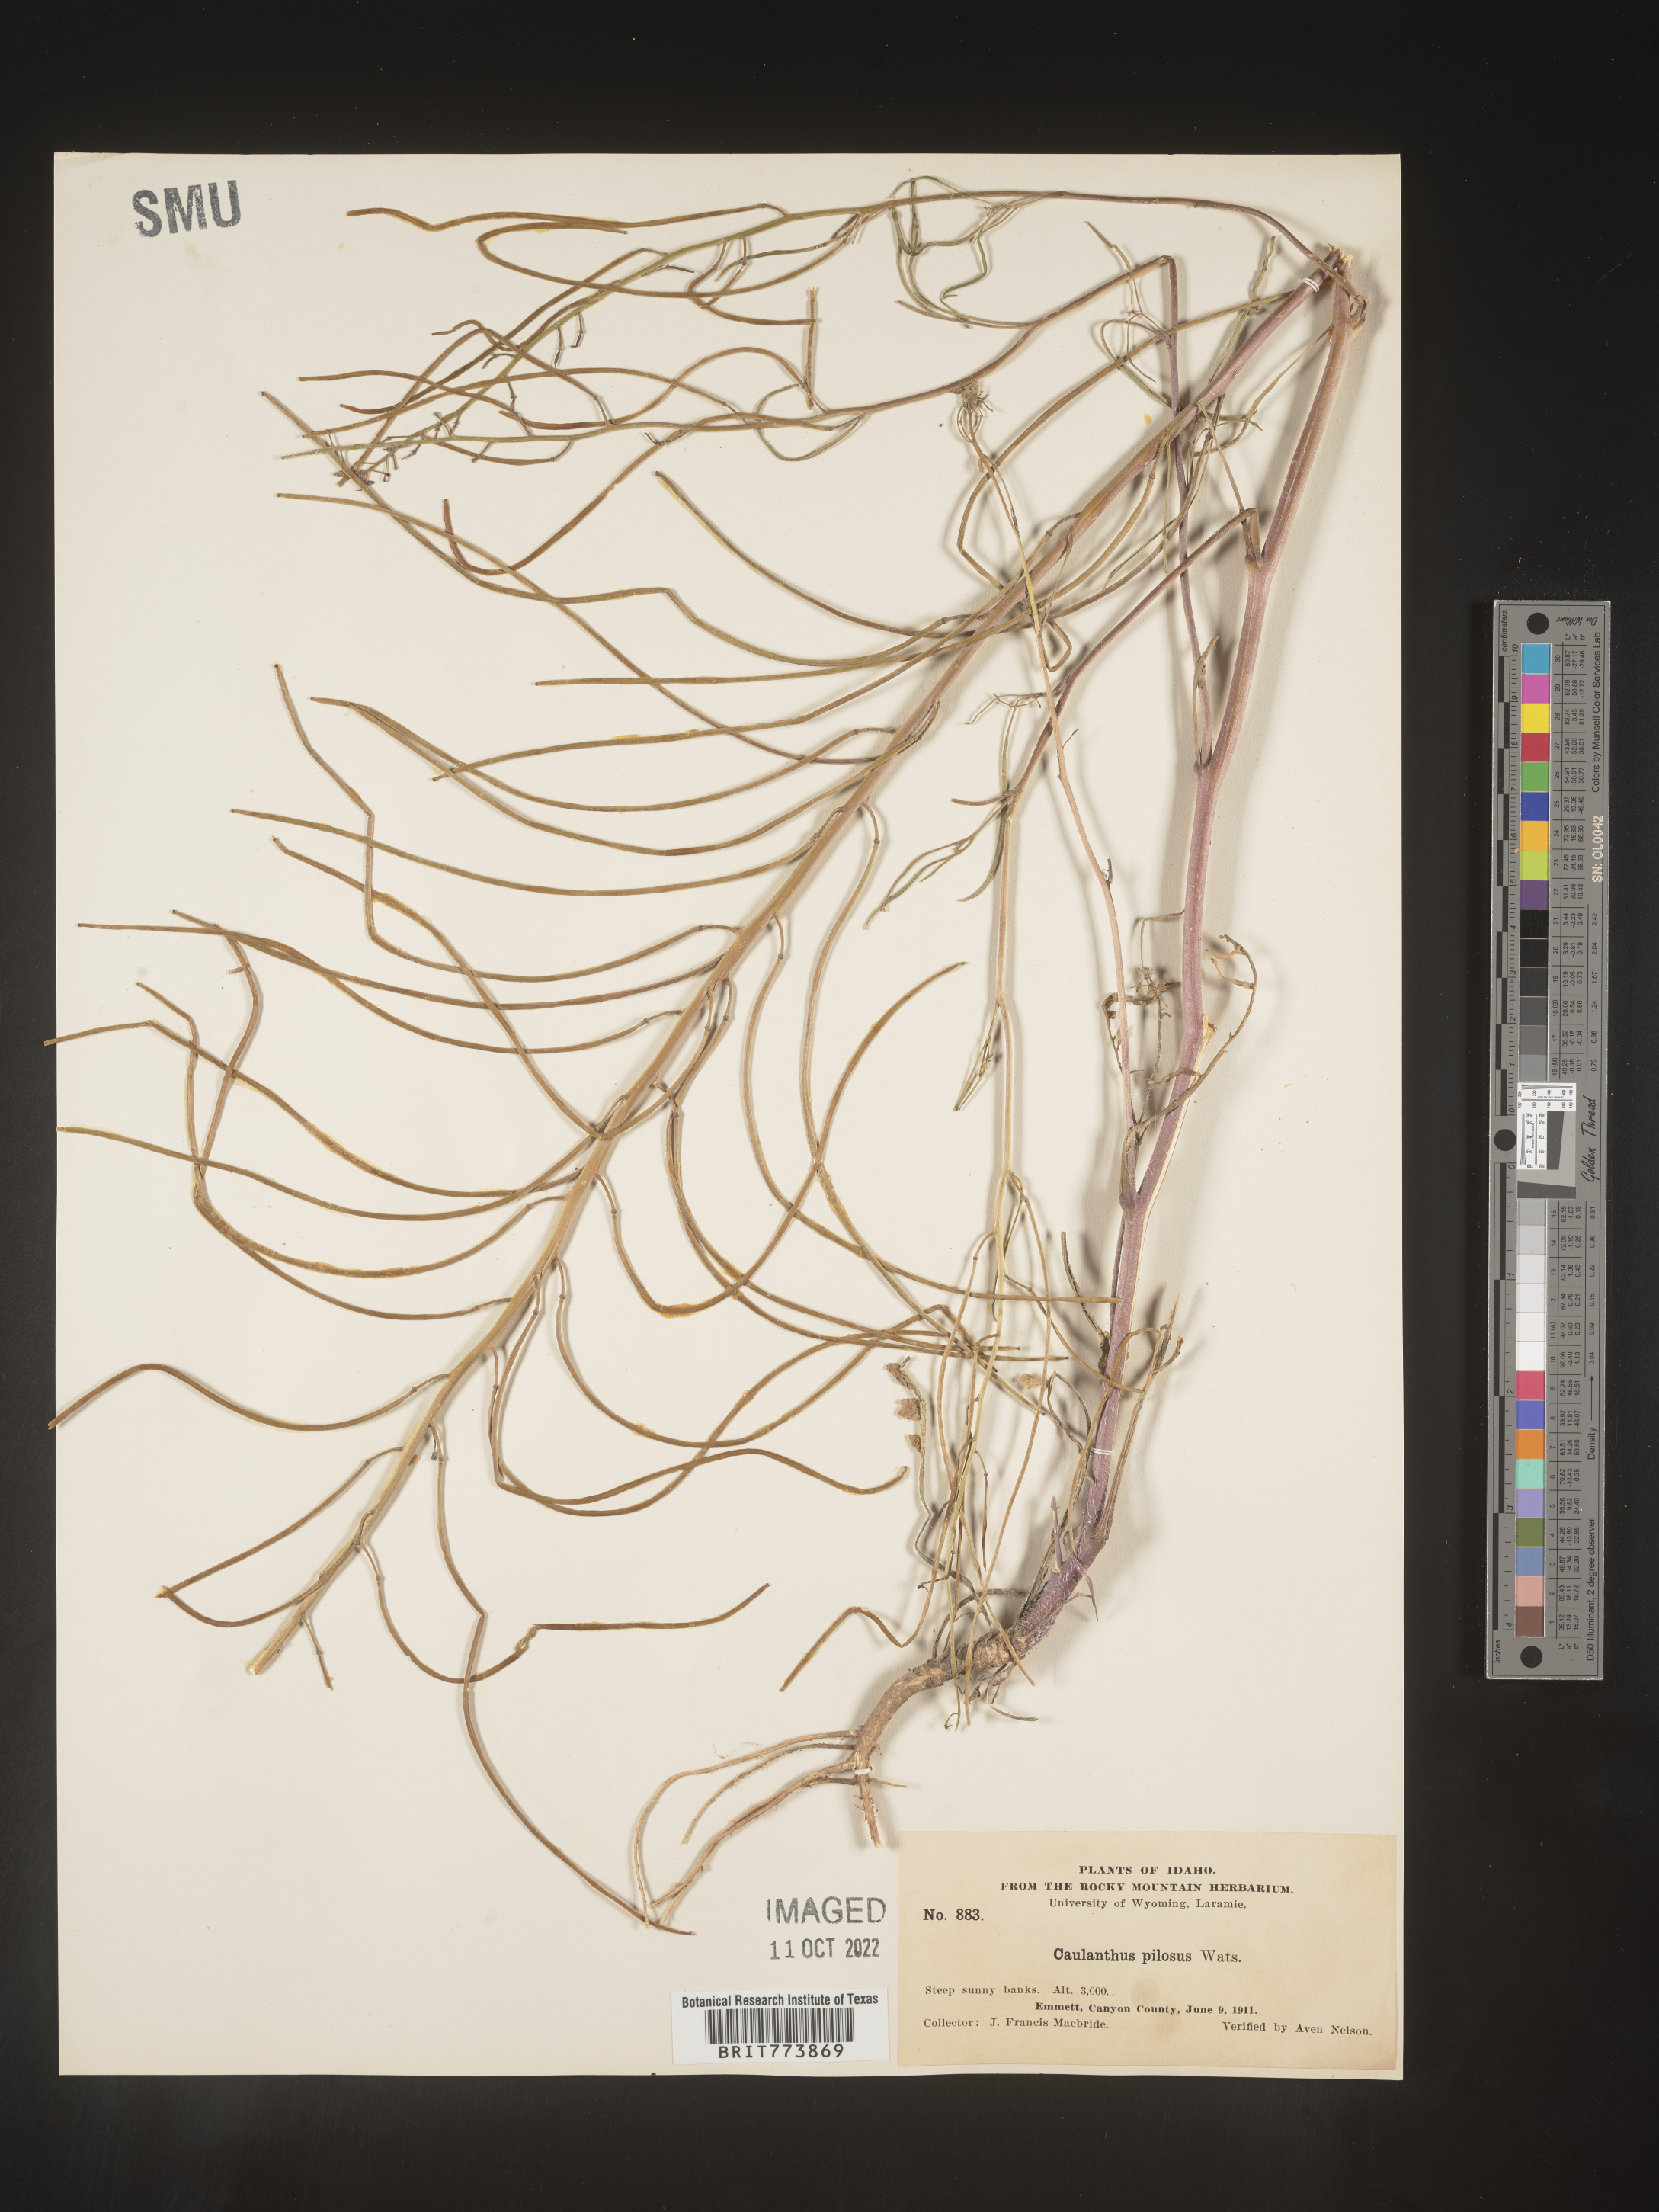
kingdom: Plantae
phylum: Tracheophyta
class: Magnoliopsida
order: Brassicales
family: Brassicaceae
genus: Streptanthus
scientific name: Streptanthus
